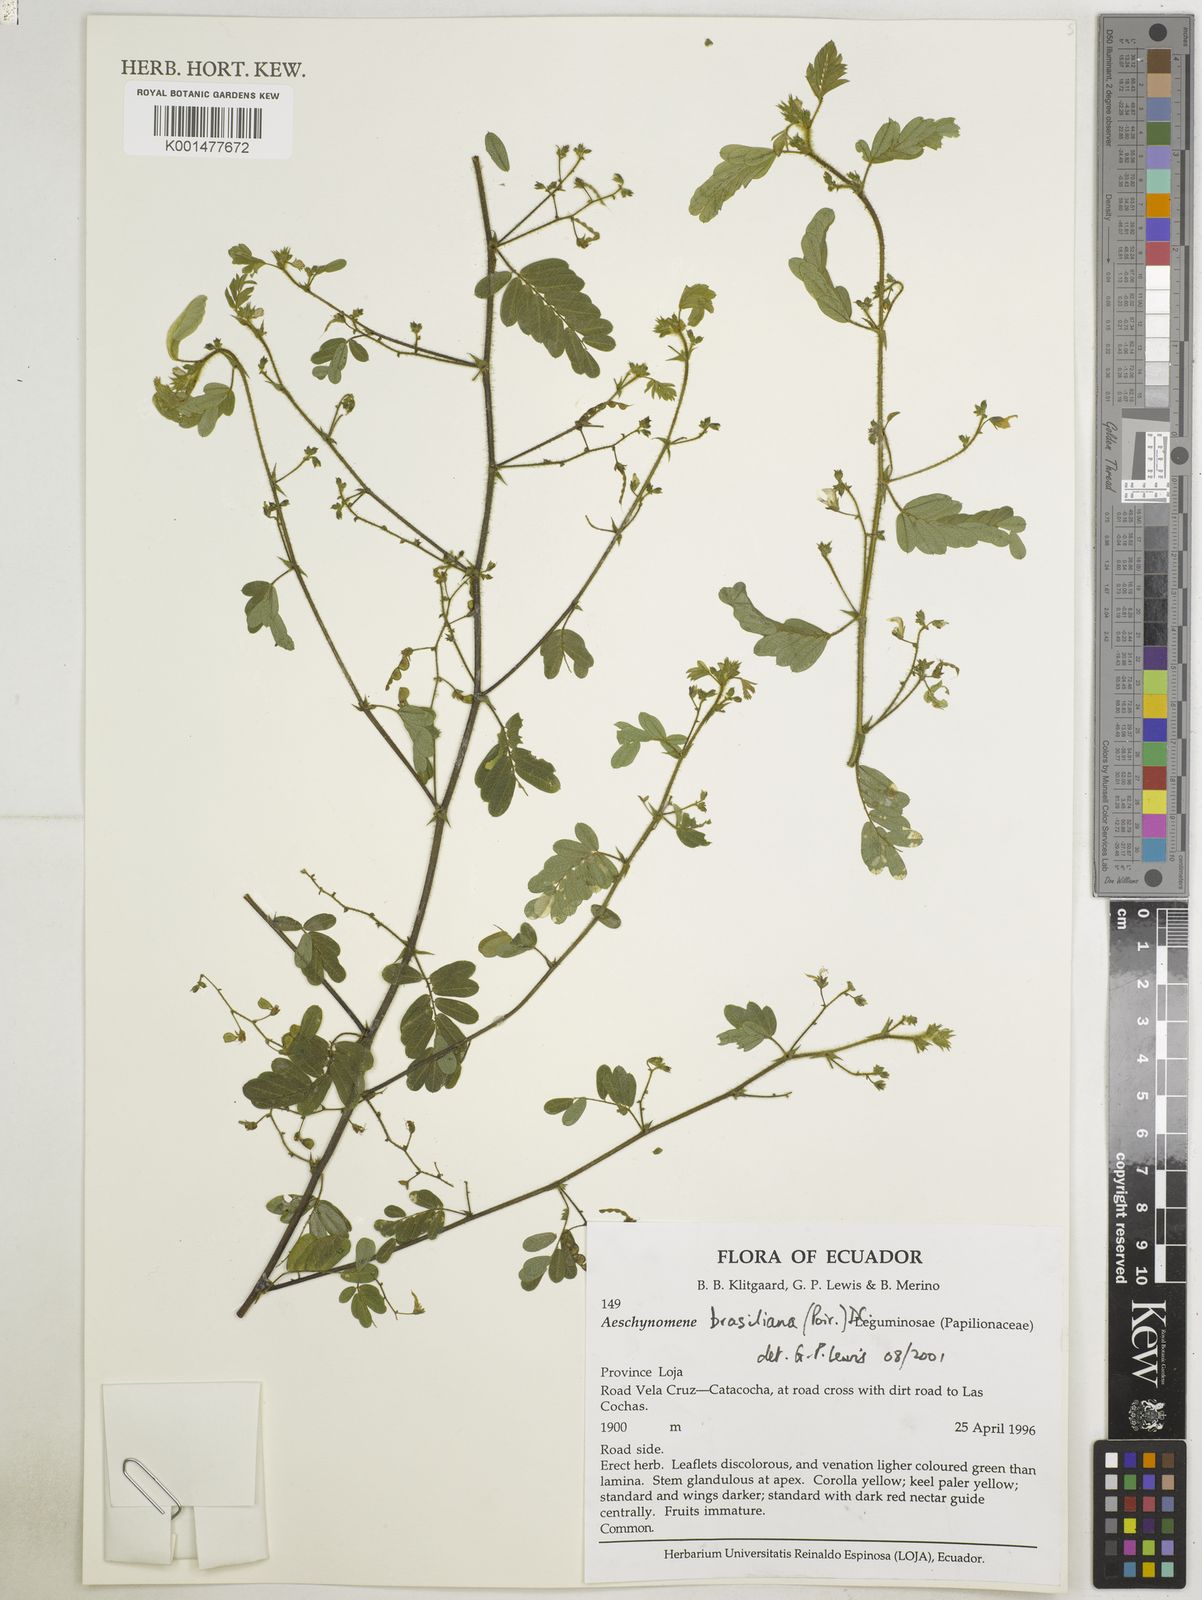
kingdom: Plantae
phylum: Tracheophyta
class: Magnoliopsida
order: Fabales
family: Fabaceae
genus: Ctenodon
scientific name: Ctenodon brasilianus
